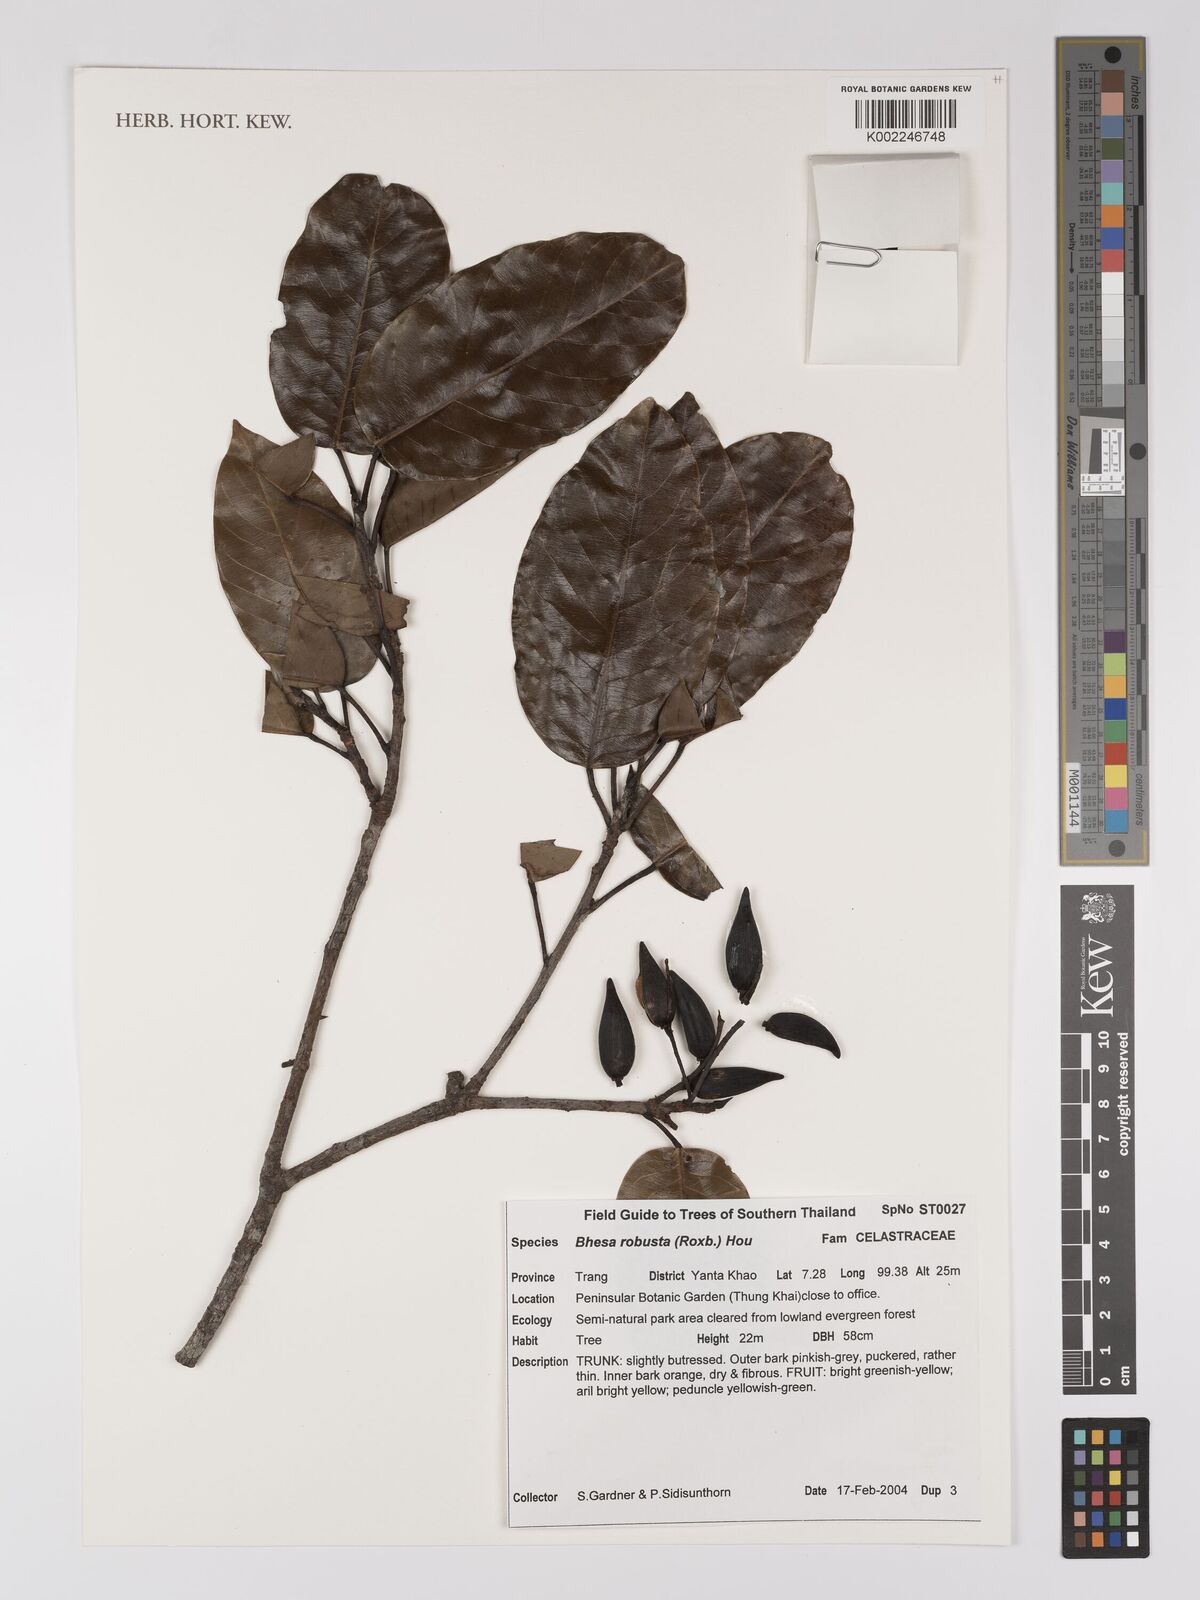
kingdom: Plantae
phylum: Tracheophyta
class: Magnoliopsida
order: Malpighiales
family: Centroplacaceae
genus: Bhesa
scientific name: Bhesa robusta
